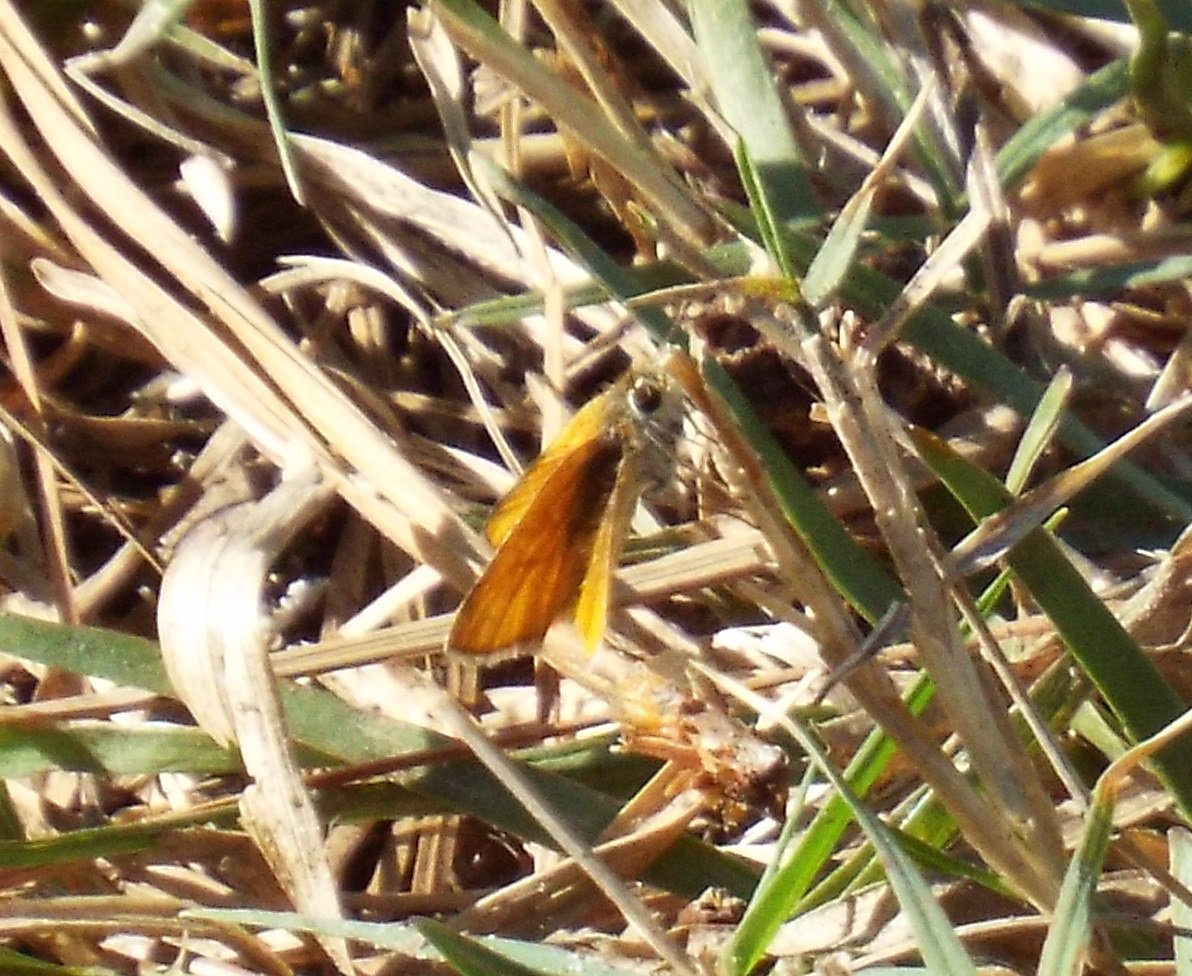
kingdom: Animalia
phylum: Arthropoda
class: Insecta
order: Lepidoptera
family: Hesperiidae
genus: Copaeodes
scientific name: Copaeodes minima
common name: Southern Skipperling
